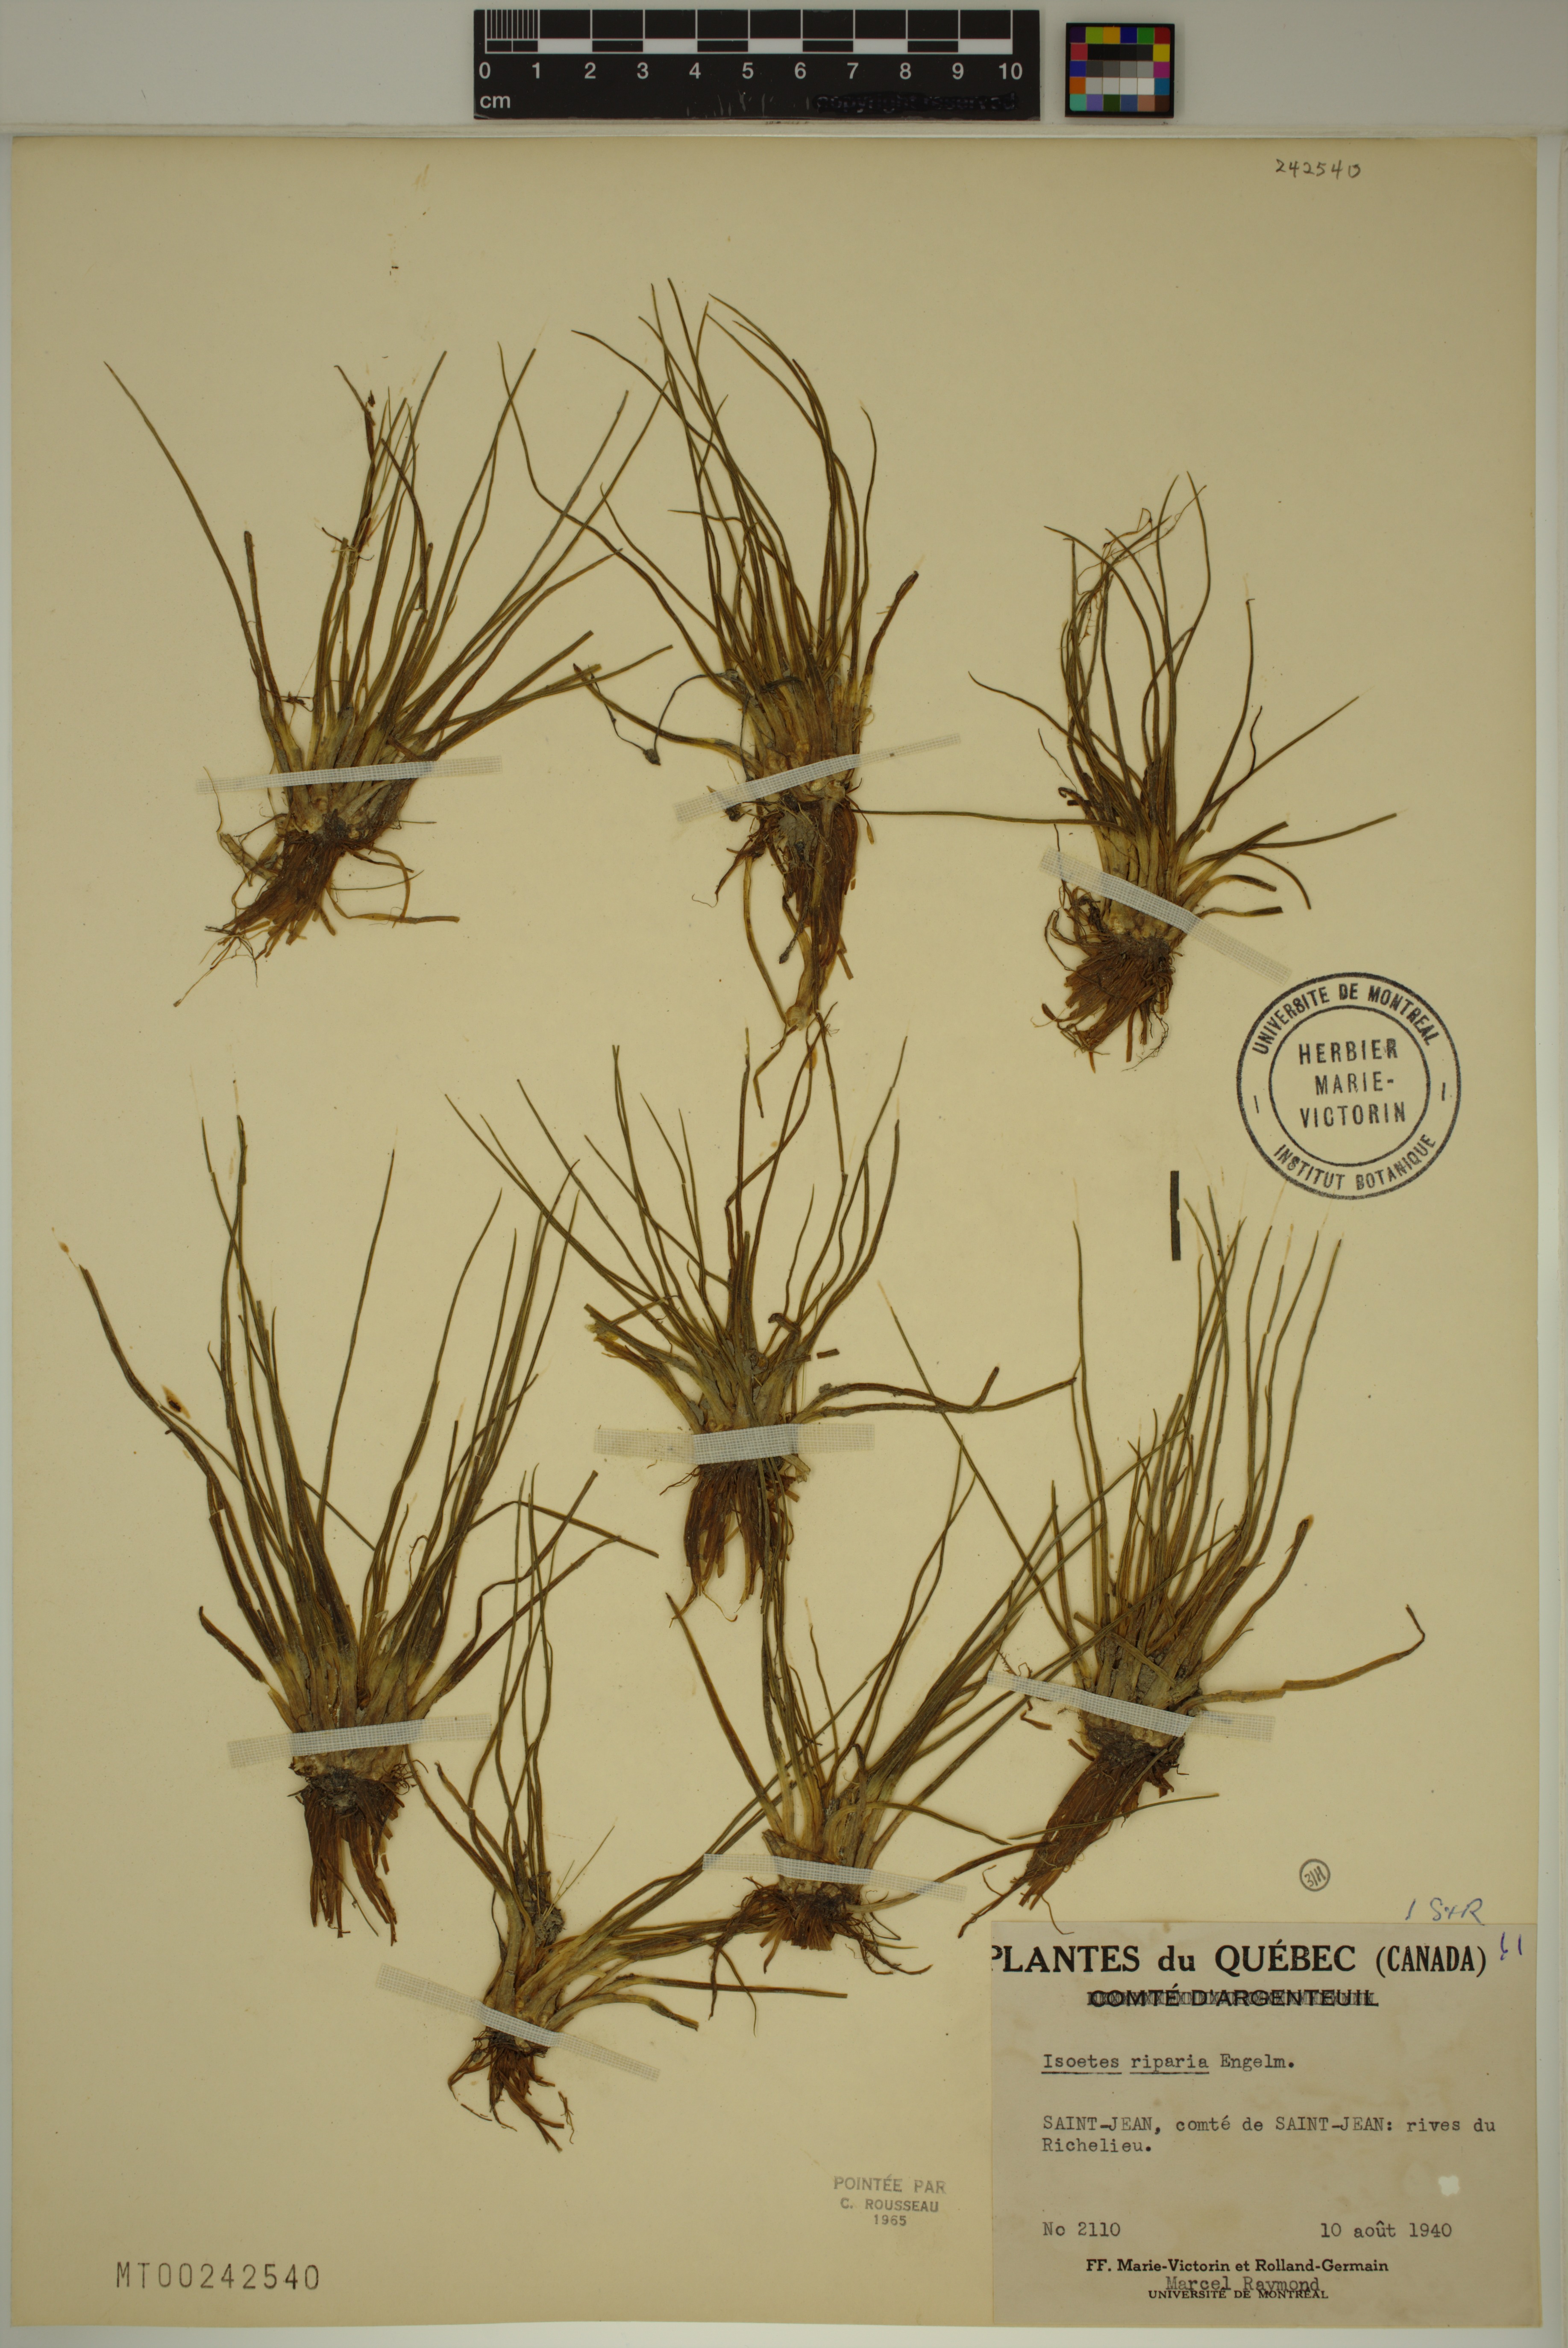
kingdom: Plantae
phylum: Tracheophyta
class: Lycopodiopsida
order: Isoetales
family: Isoetaceae
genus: Isoetes
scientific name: Isoetes septentrionalis
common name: Northern quillwort
